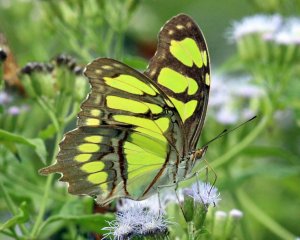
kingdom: Animalia
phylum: Arthropoda
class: Insecta
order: Lepidoptera
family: Nymphalidae
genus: Siproeta
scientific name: Siproeta stelenes
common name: Malachite
